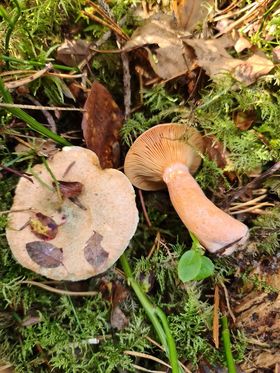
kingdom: Fungi
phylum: Basidiomycota
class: Agaricomycetes
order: Russulales
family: Russulaceae
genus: Lactarius
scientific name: Lactarius deterrimus
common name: gran-mælkehat
